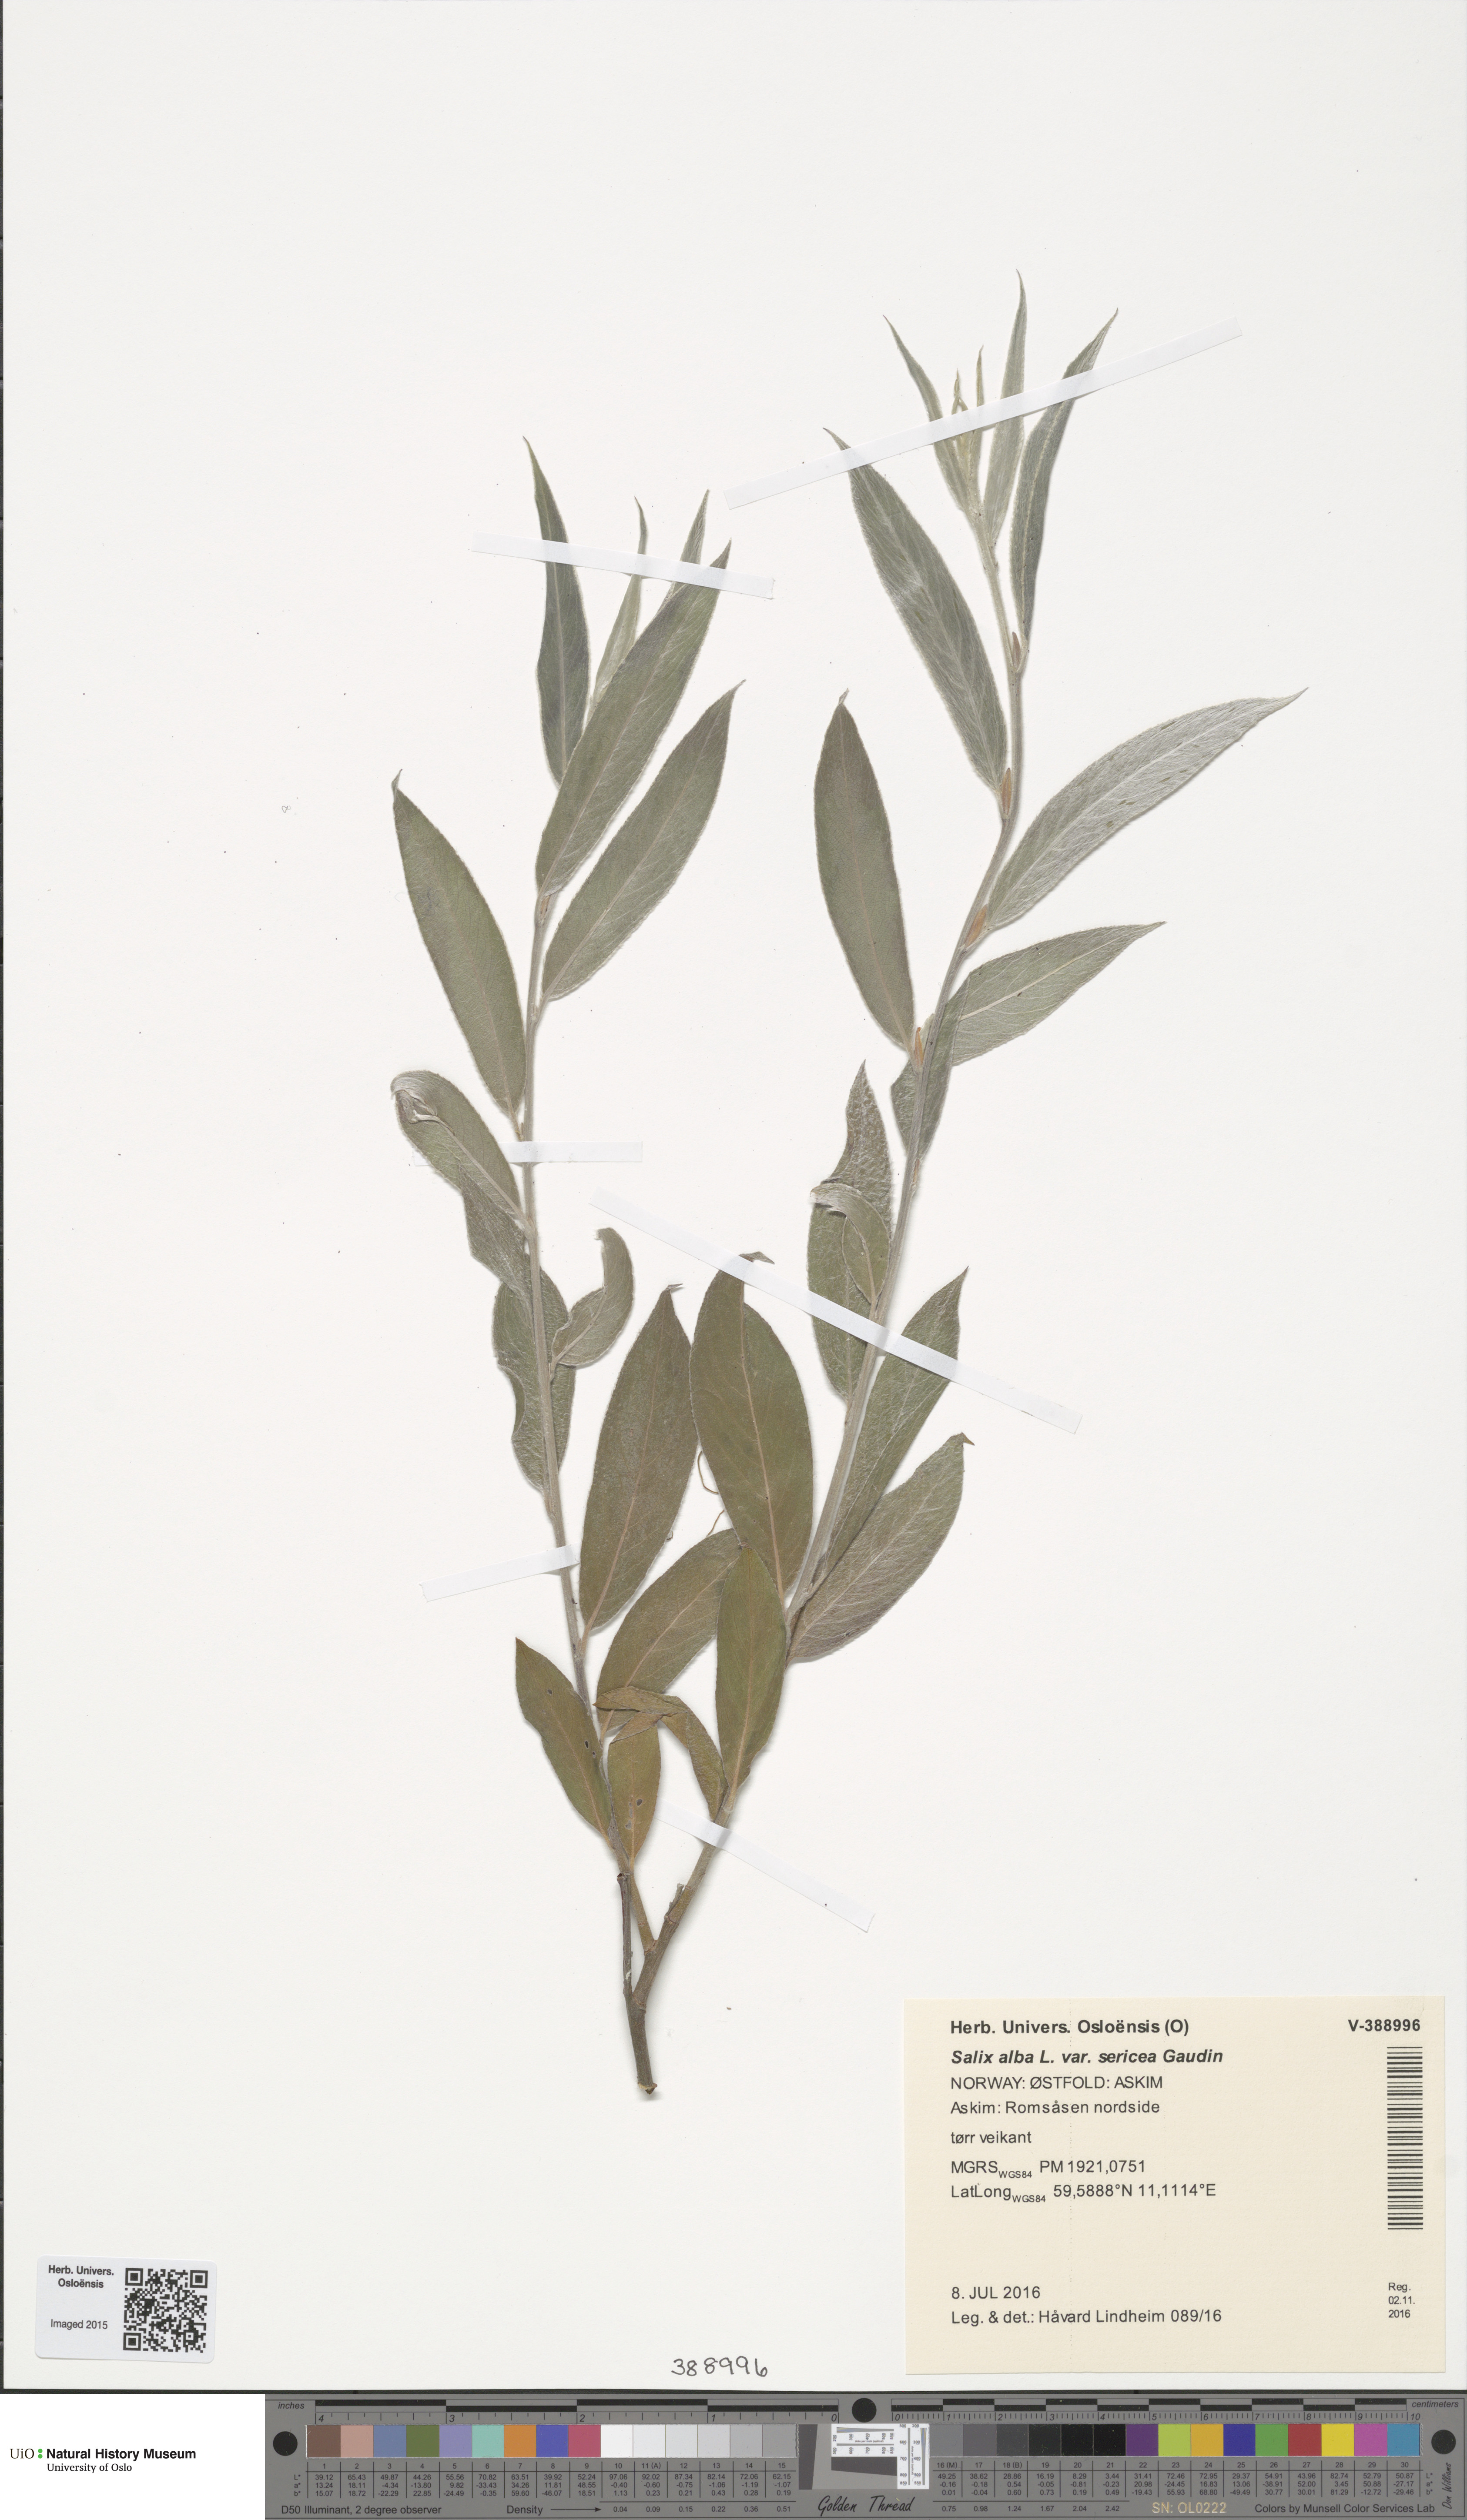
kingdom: Plantae
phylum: Tracheophyta
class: Magnoliopsida
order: Malpighiales
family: Salicaceae
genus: Salix
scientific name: Salix alba
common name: White willow
